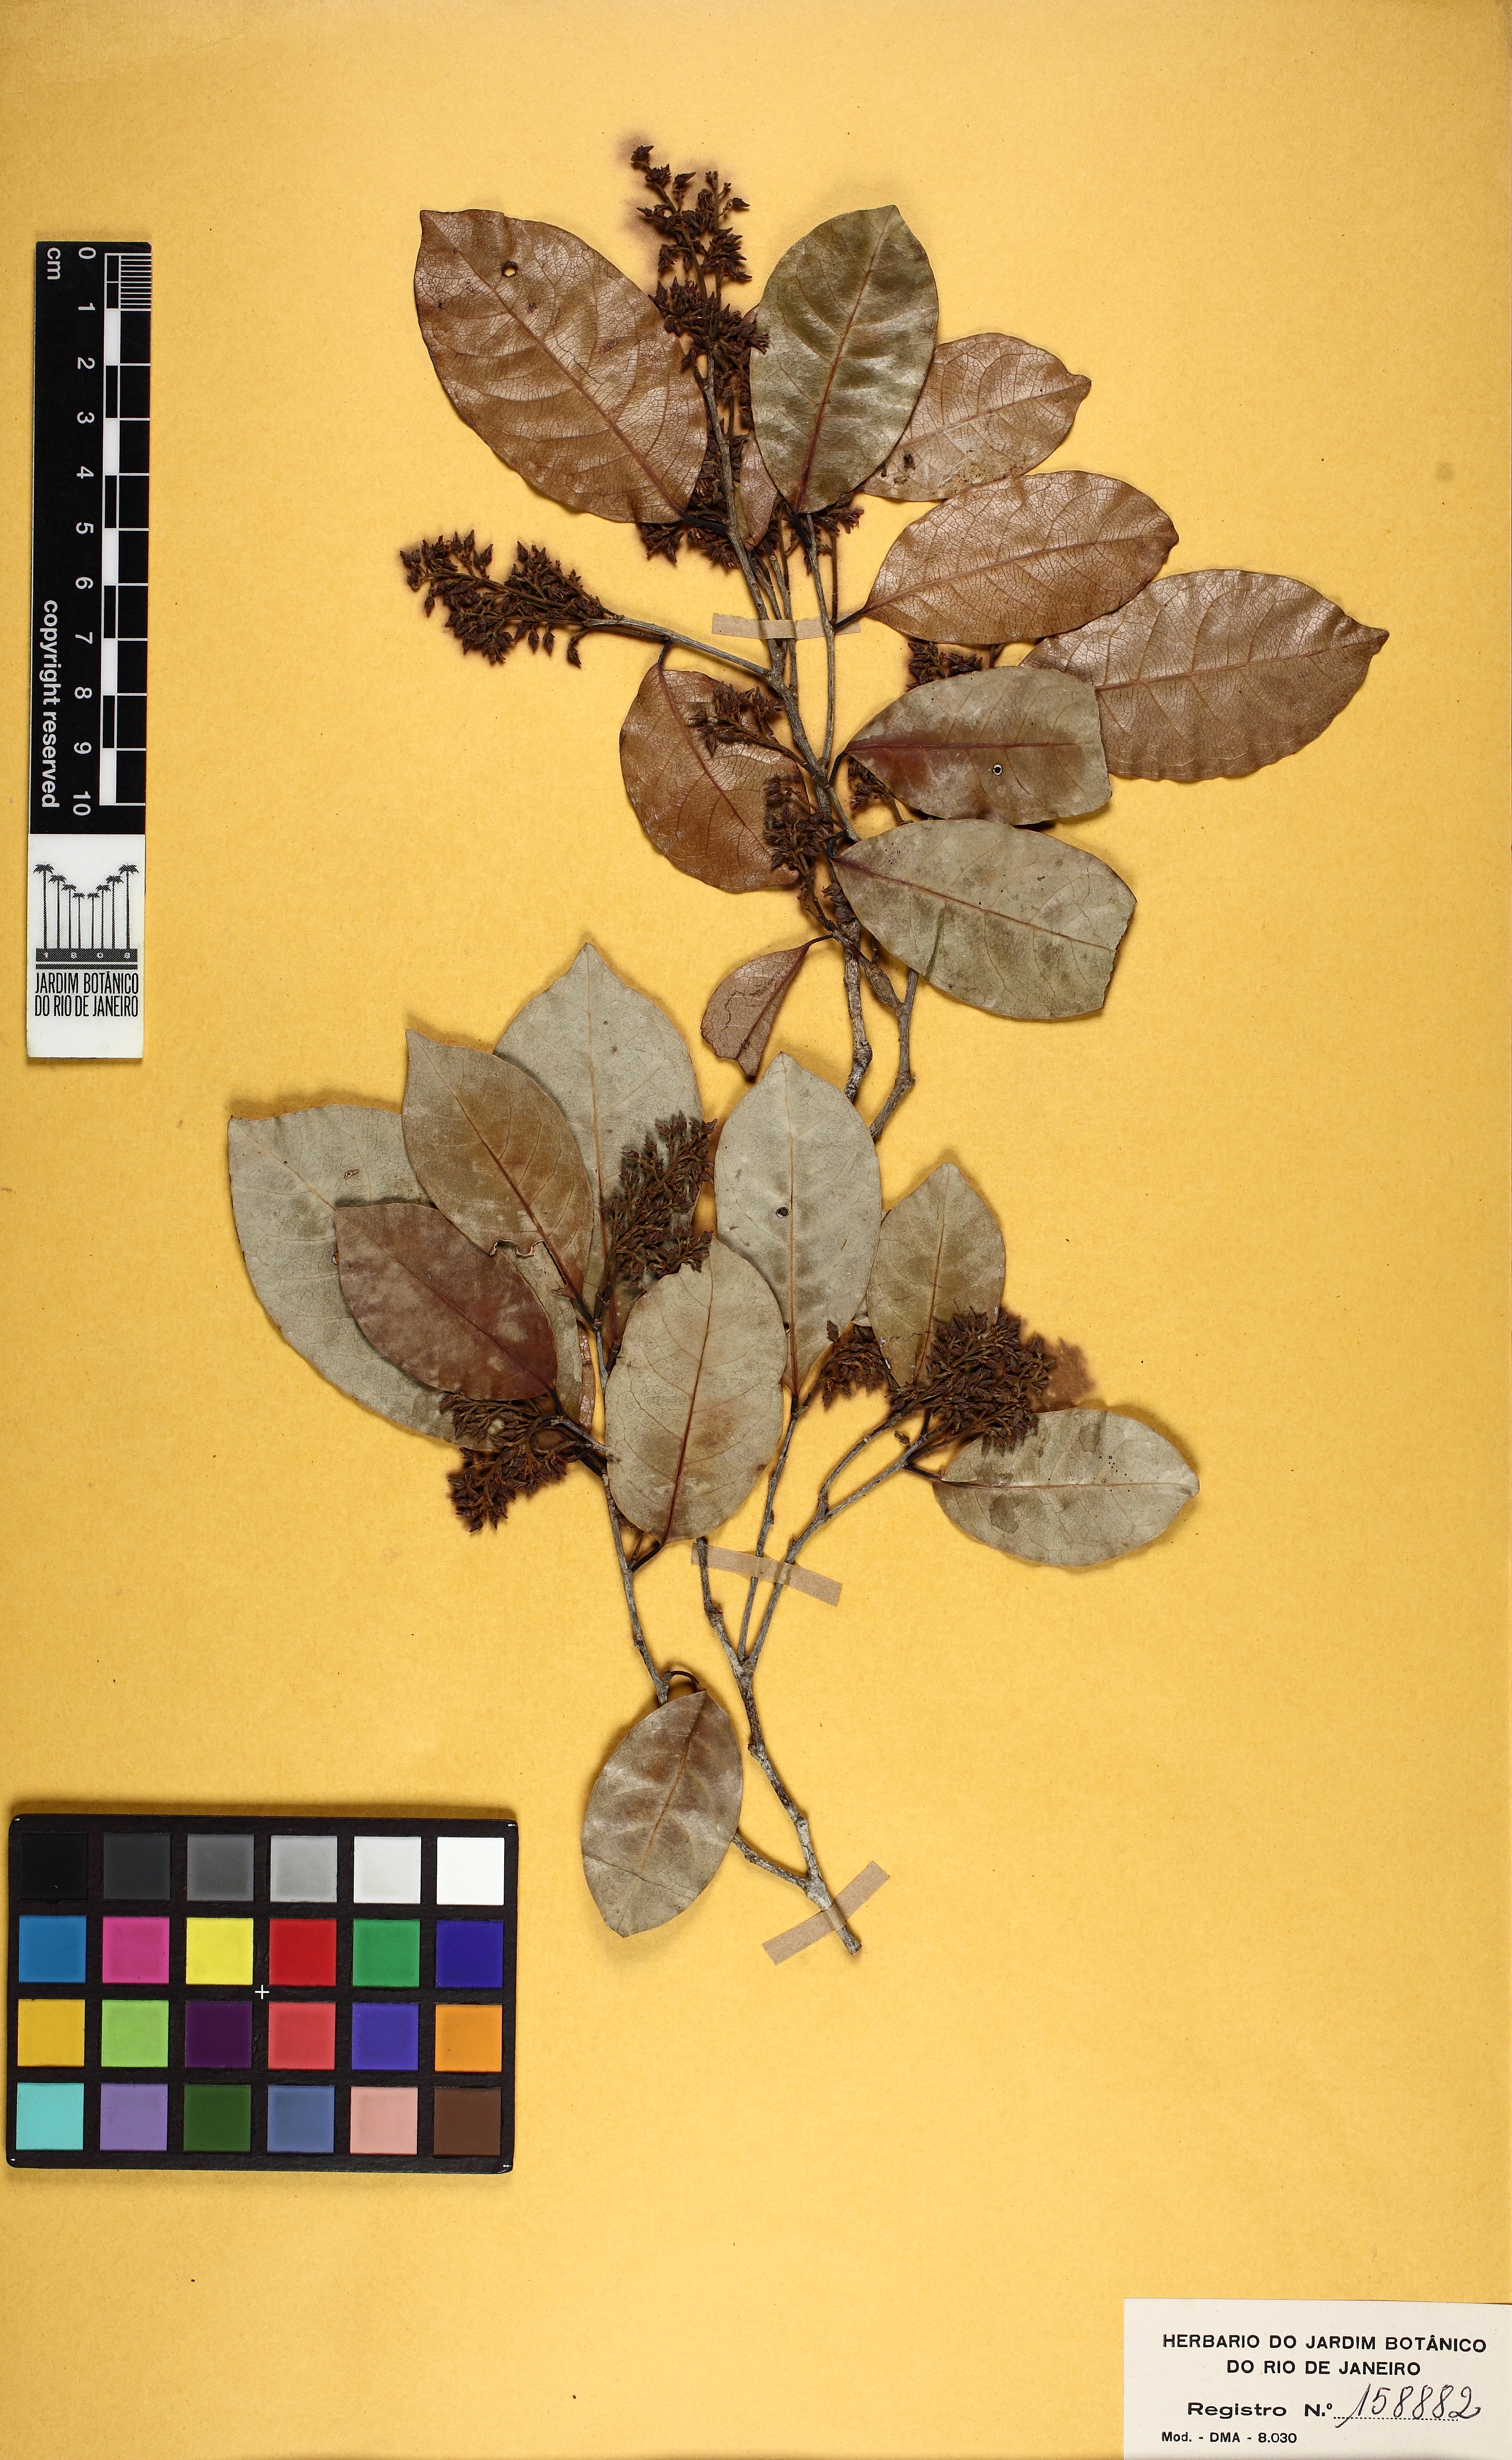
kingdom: Plantae
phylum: Tracheophyta
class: Magnoliopsida
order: Malpighiales
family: Violaceae
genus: Rinorea
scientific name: Rinorea
